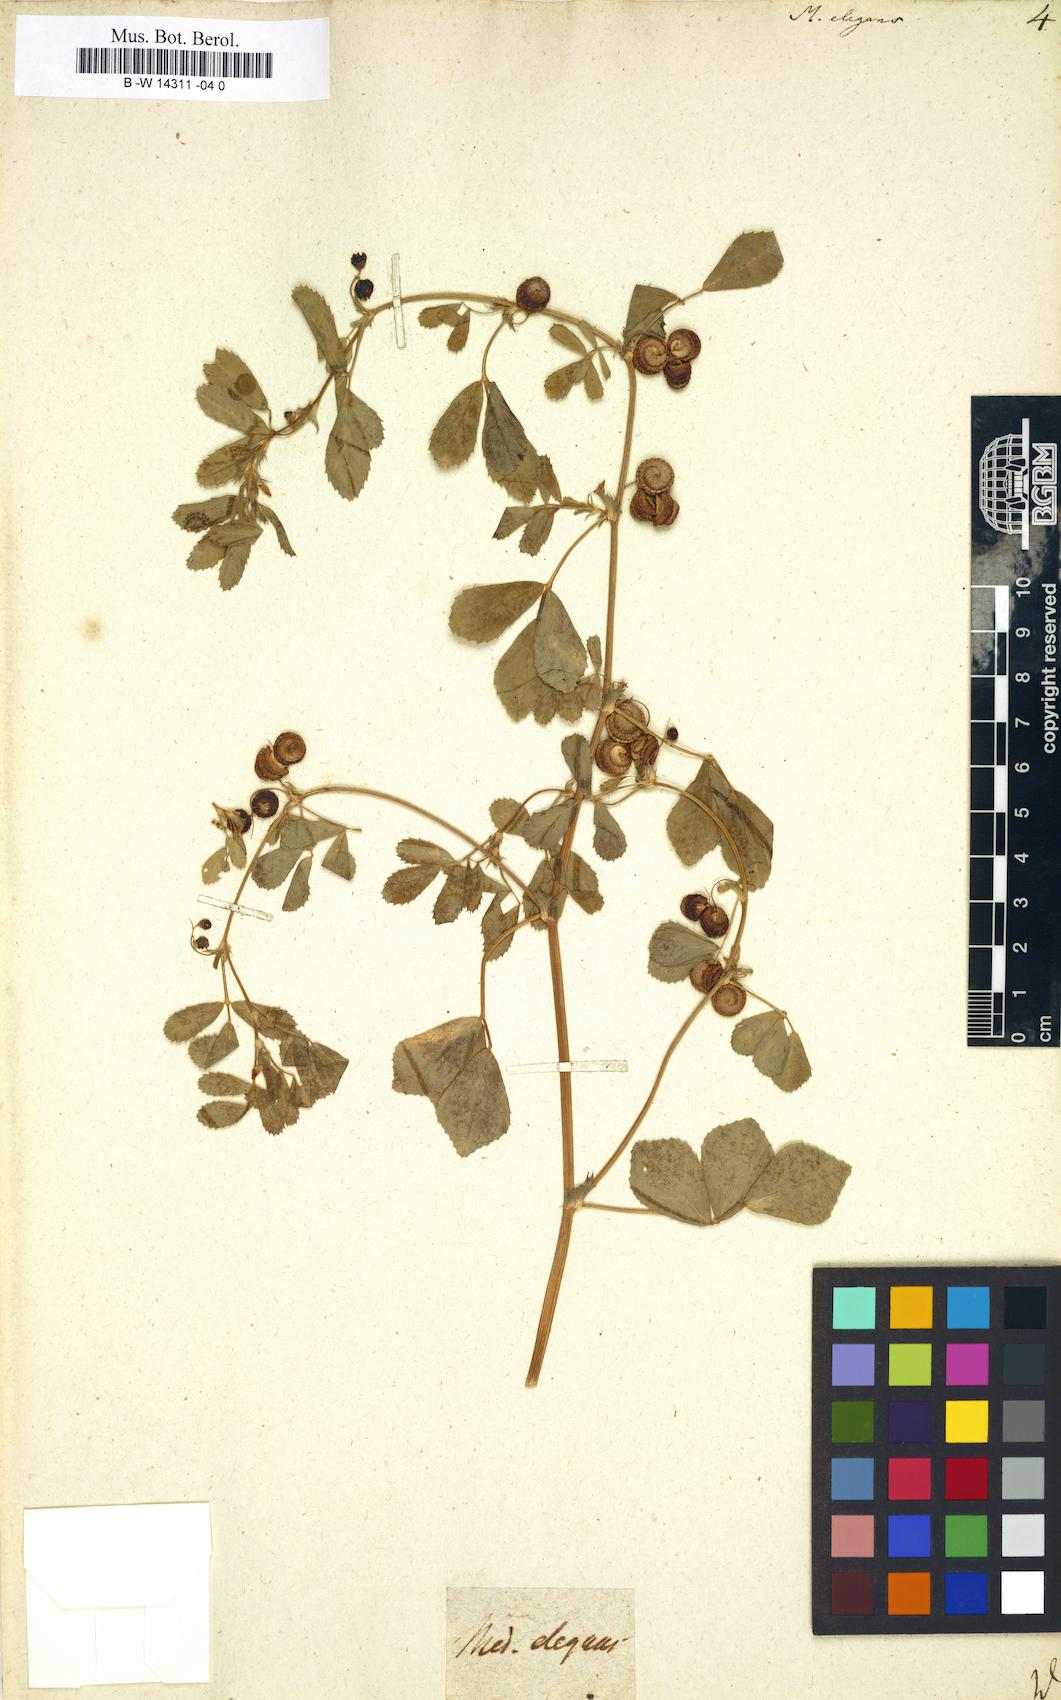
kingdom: Plantae
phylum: Tracheophyta
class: Magnoliopsida
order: Fabales
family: Fabaceae
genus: Medicago
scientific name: Medicago rugosa
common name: Gama medic
